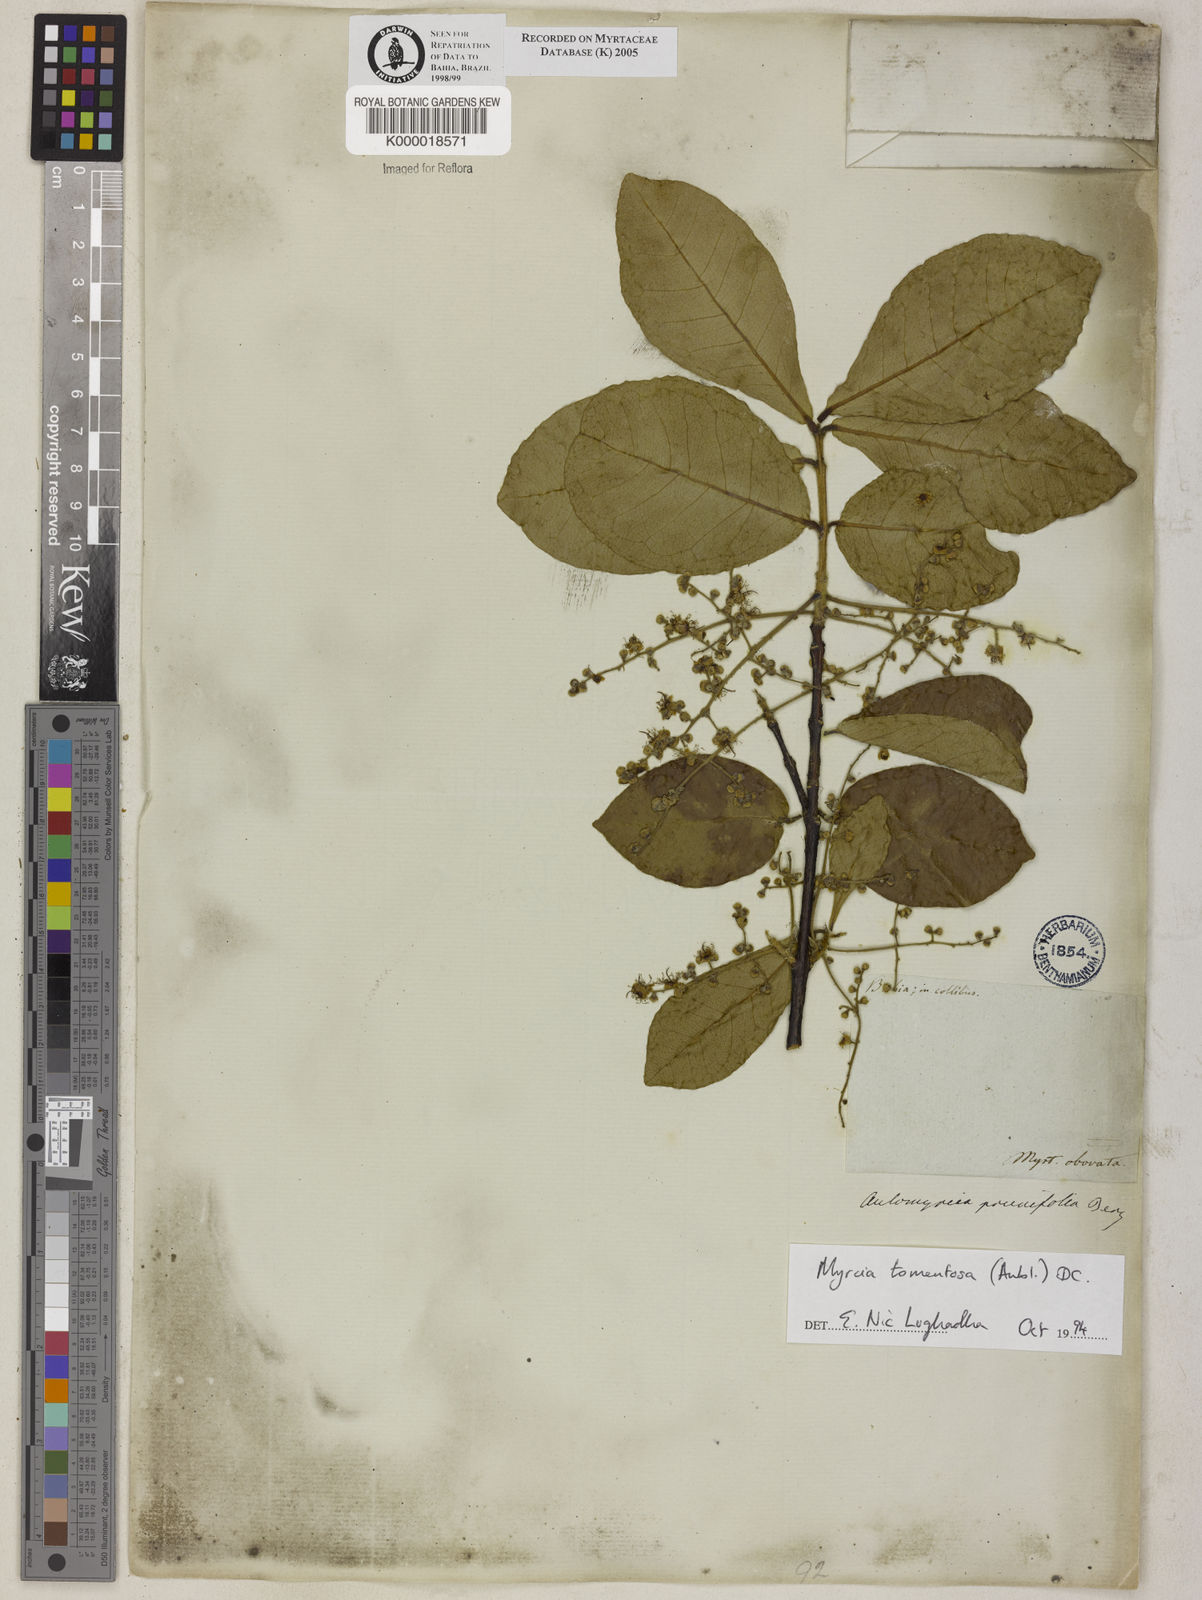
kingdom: Plantae
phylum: Tracheophyta
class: Magnoliopsida
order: Myrtales
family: Myrtaceae
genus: Myrcia
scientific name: Myrcia tomentosa
